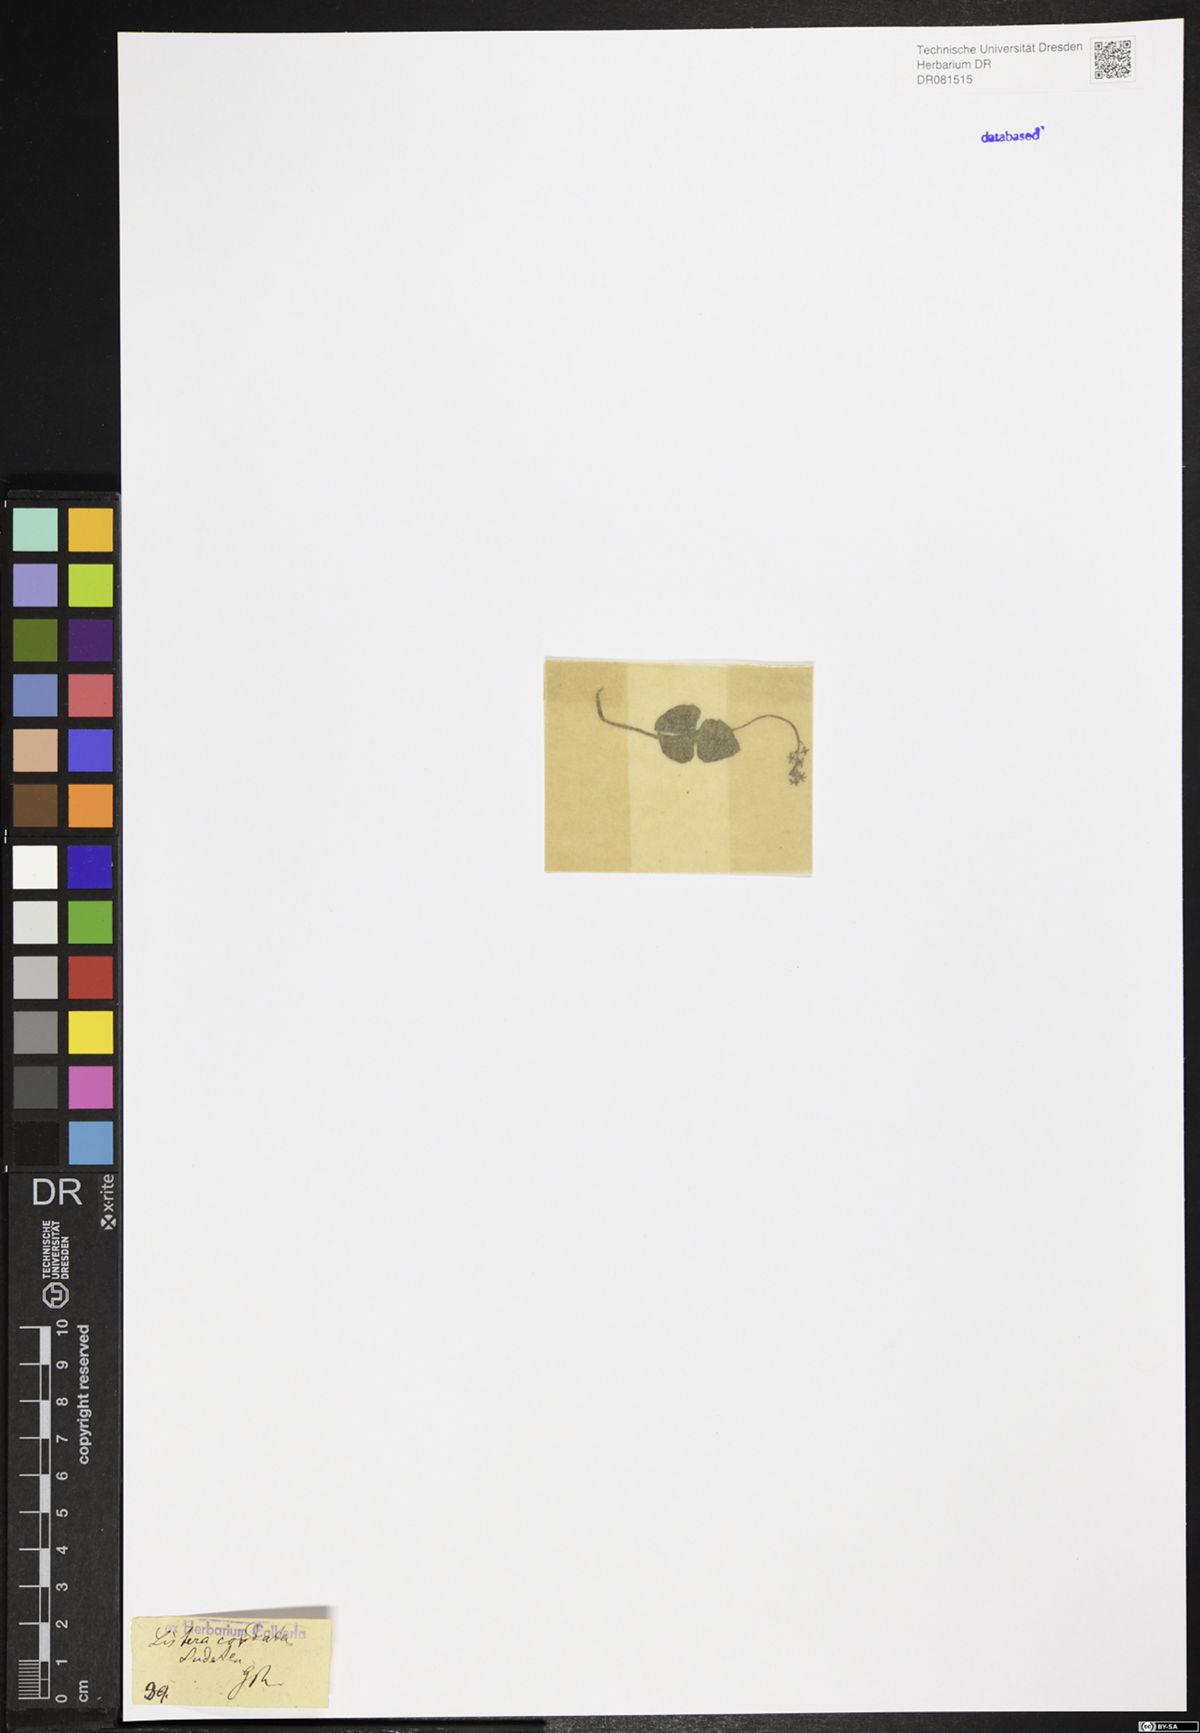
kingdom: Plantae
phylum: Tracheophyta
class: Liliopsida
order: Asparagales
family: Orchidaceae
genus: Neottia
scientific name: Neottia cordata
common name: Lesser twayblade
